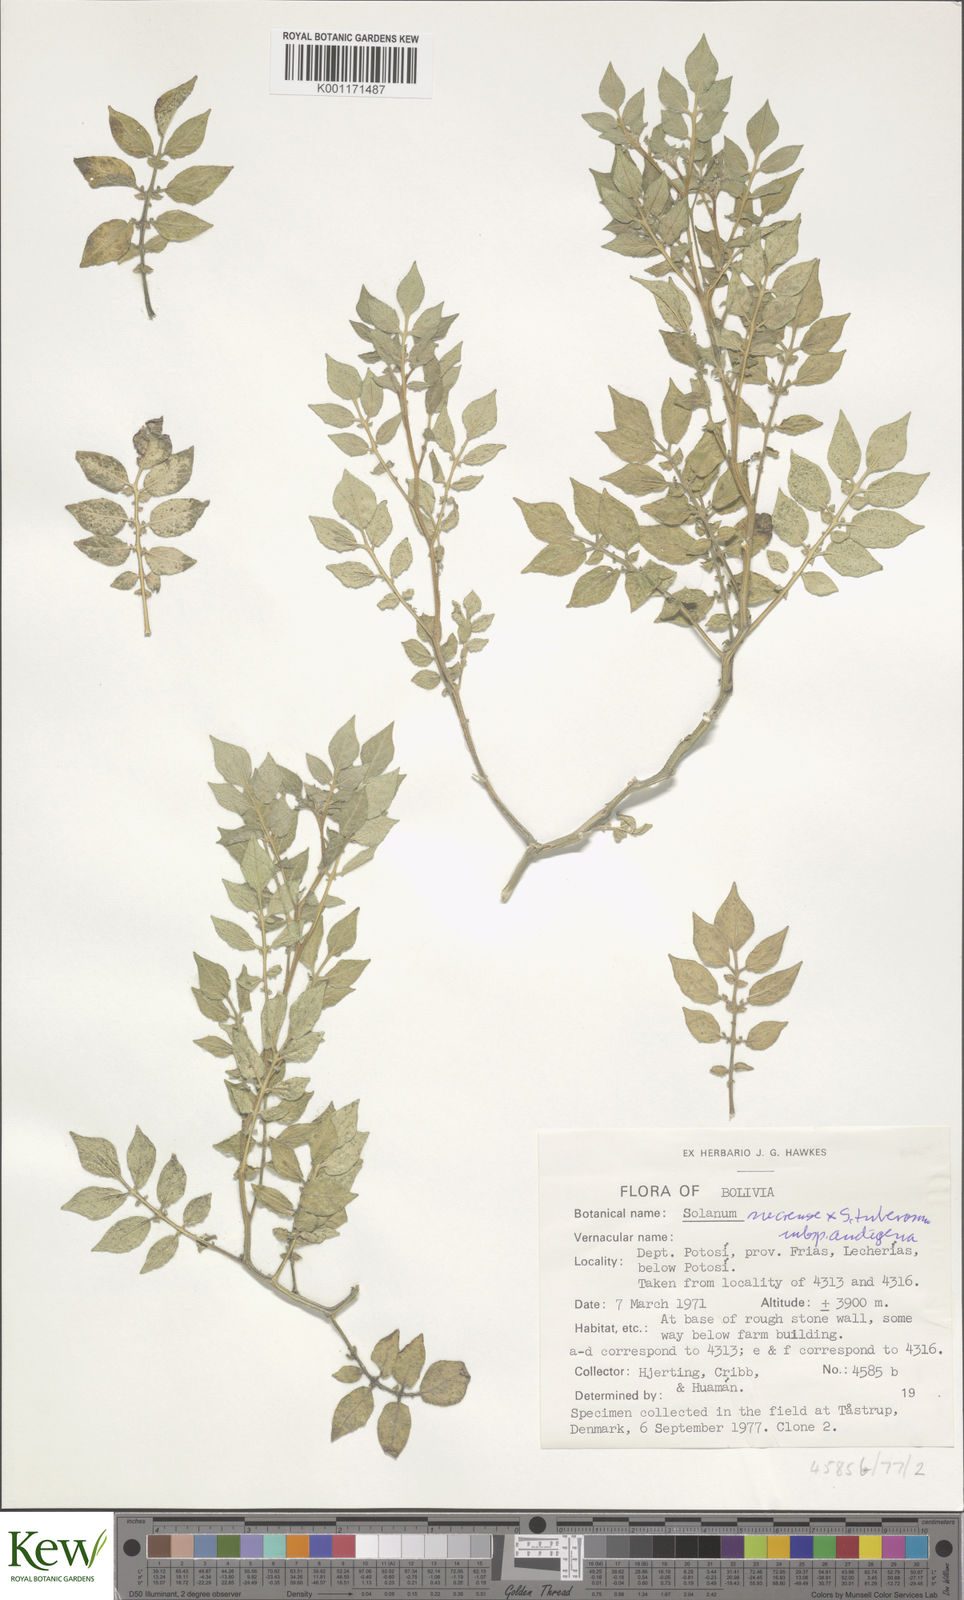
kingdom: Plantae
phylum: Tracheophyta
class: Magnoliopsida
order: Solanales
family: Solanaceae
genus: Solanum
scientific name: Solanum tuberosum
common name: Potato
